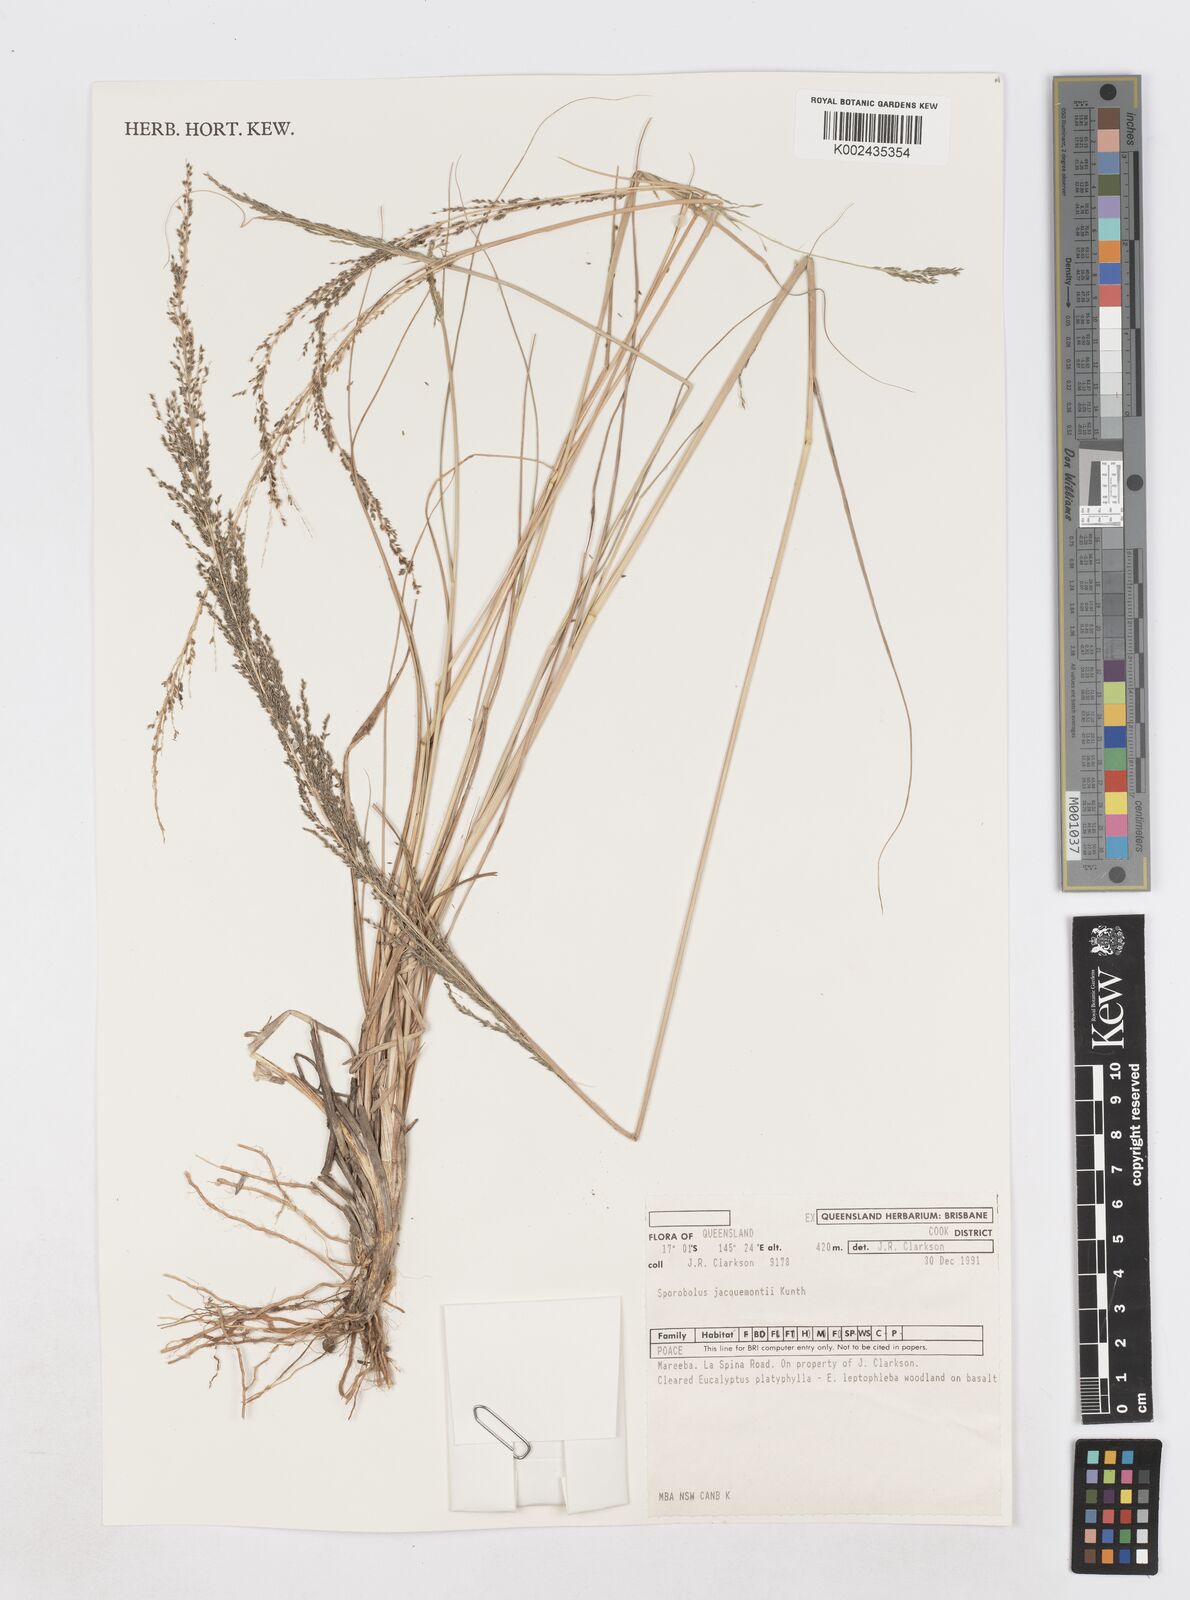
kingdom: Plantae
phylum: Tracheophyta
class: Liliopsida
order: Poales
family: Poaceae
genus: Sporobolus
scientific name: Sporobolus pyramidalis
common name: West indian dropseed
